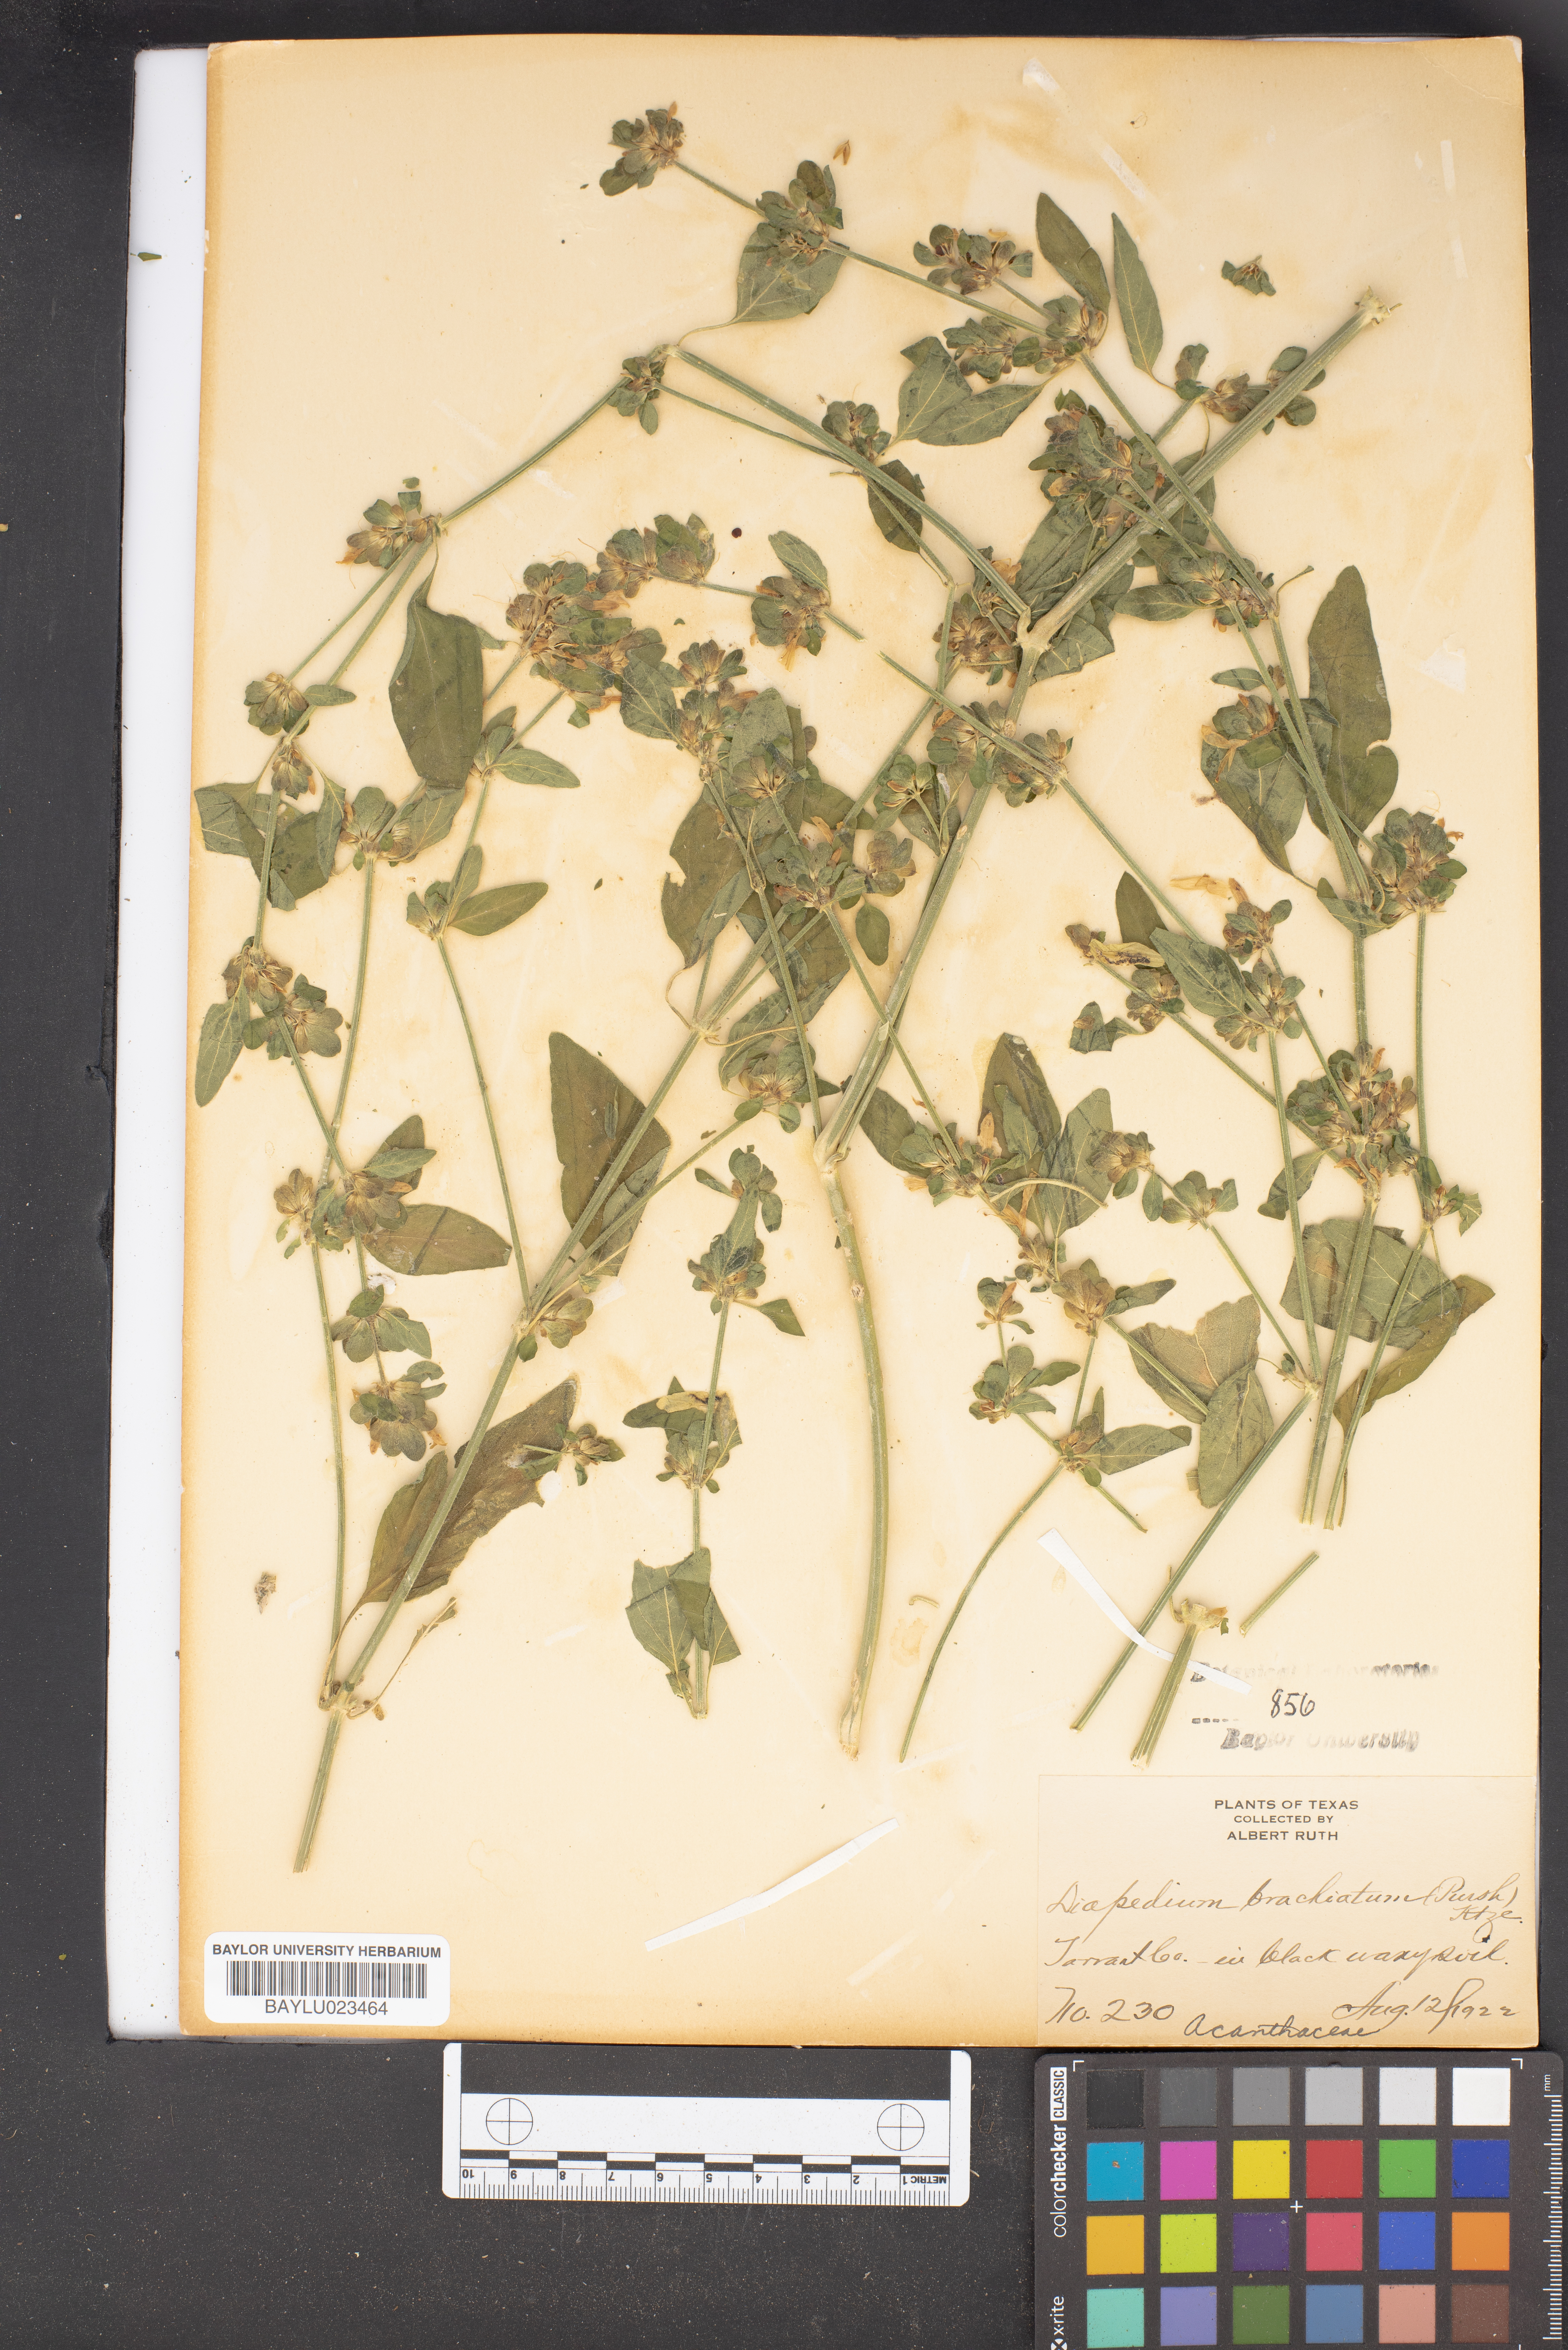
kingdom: Plantae
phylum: Tracheophyta
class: Magnoliopsida
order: Lamiales
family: Acanthaceae
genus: Dicliptera
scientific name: Dicliptera brachiata
